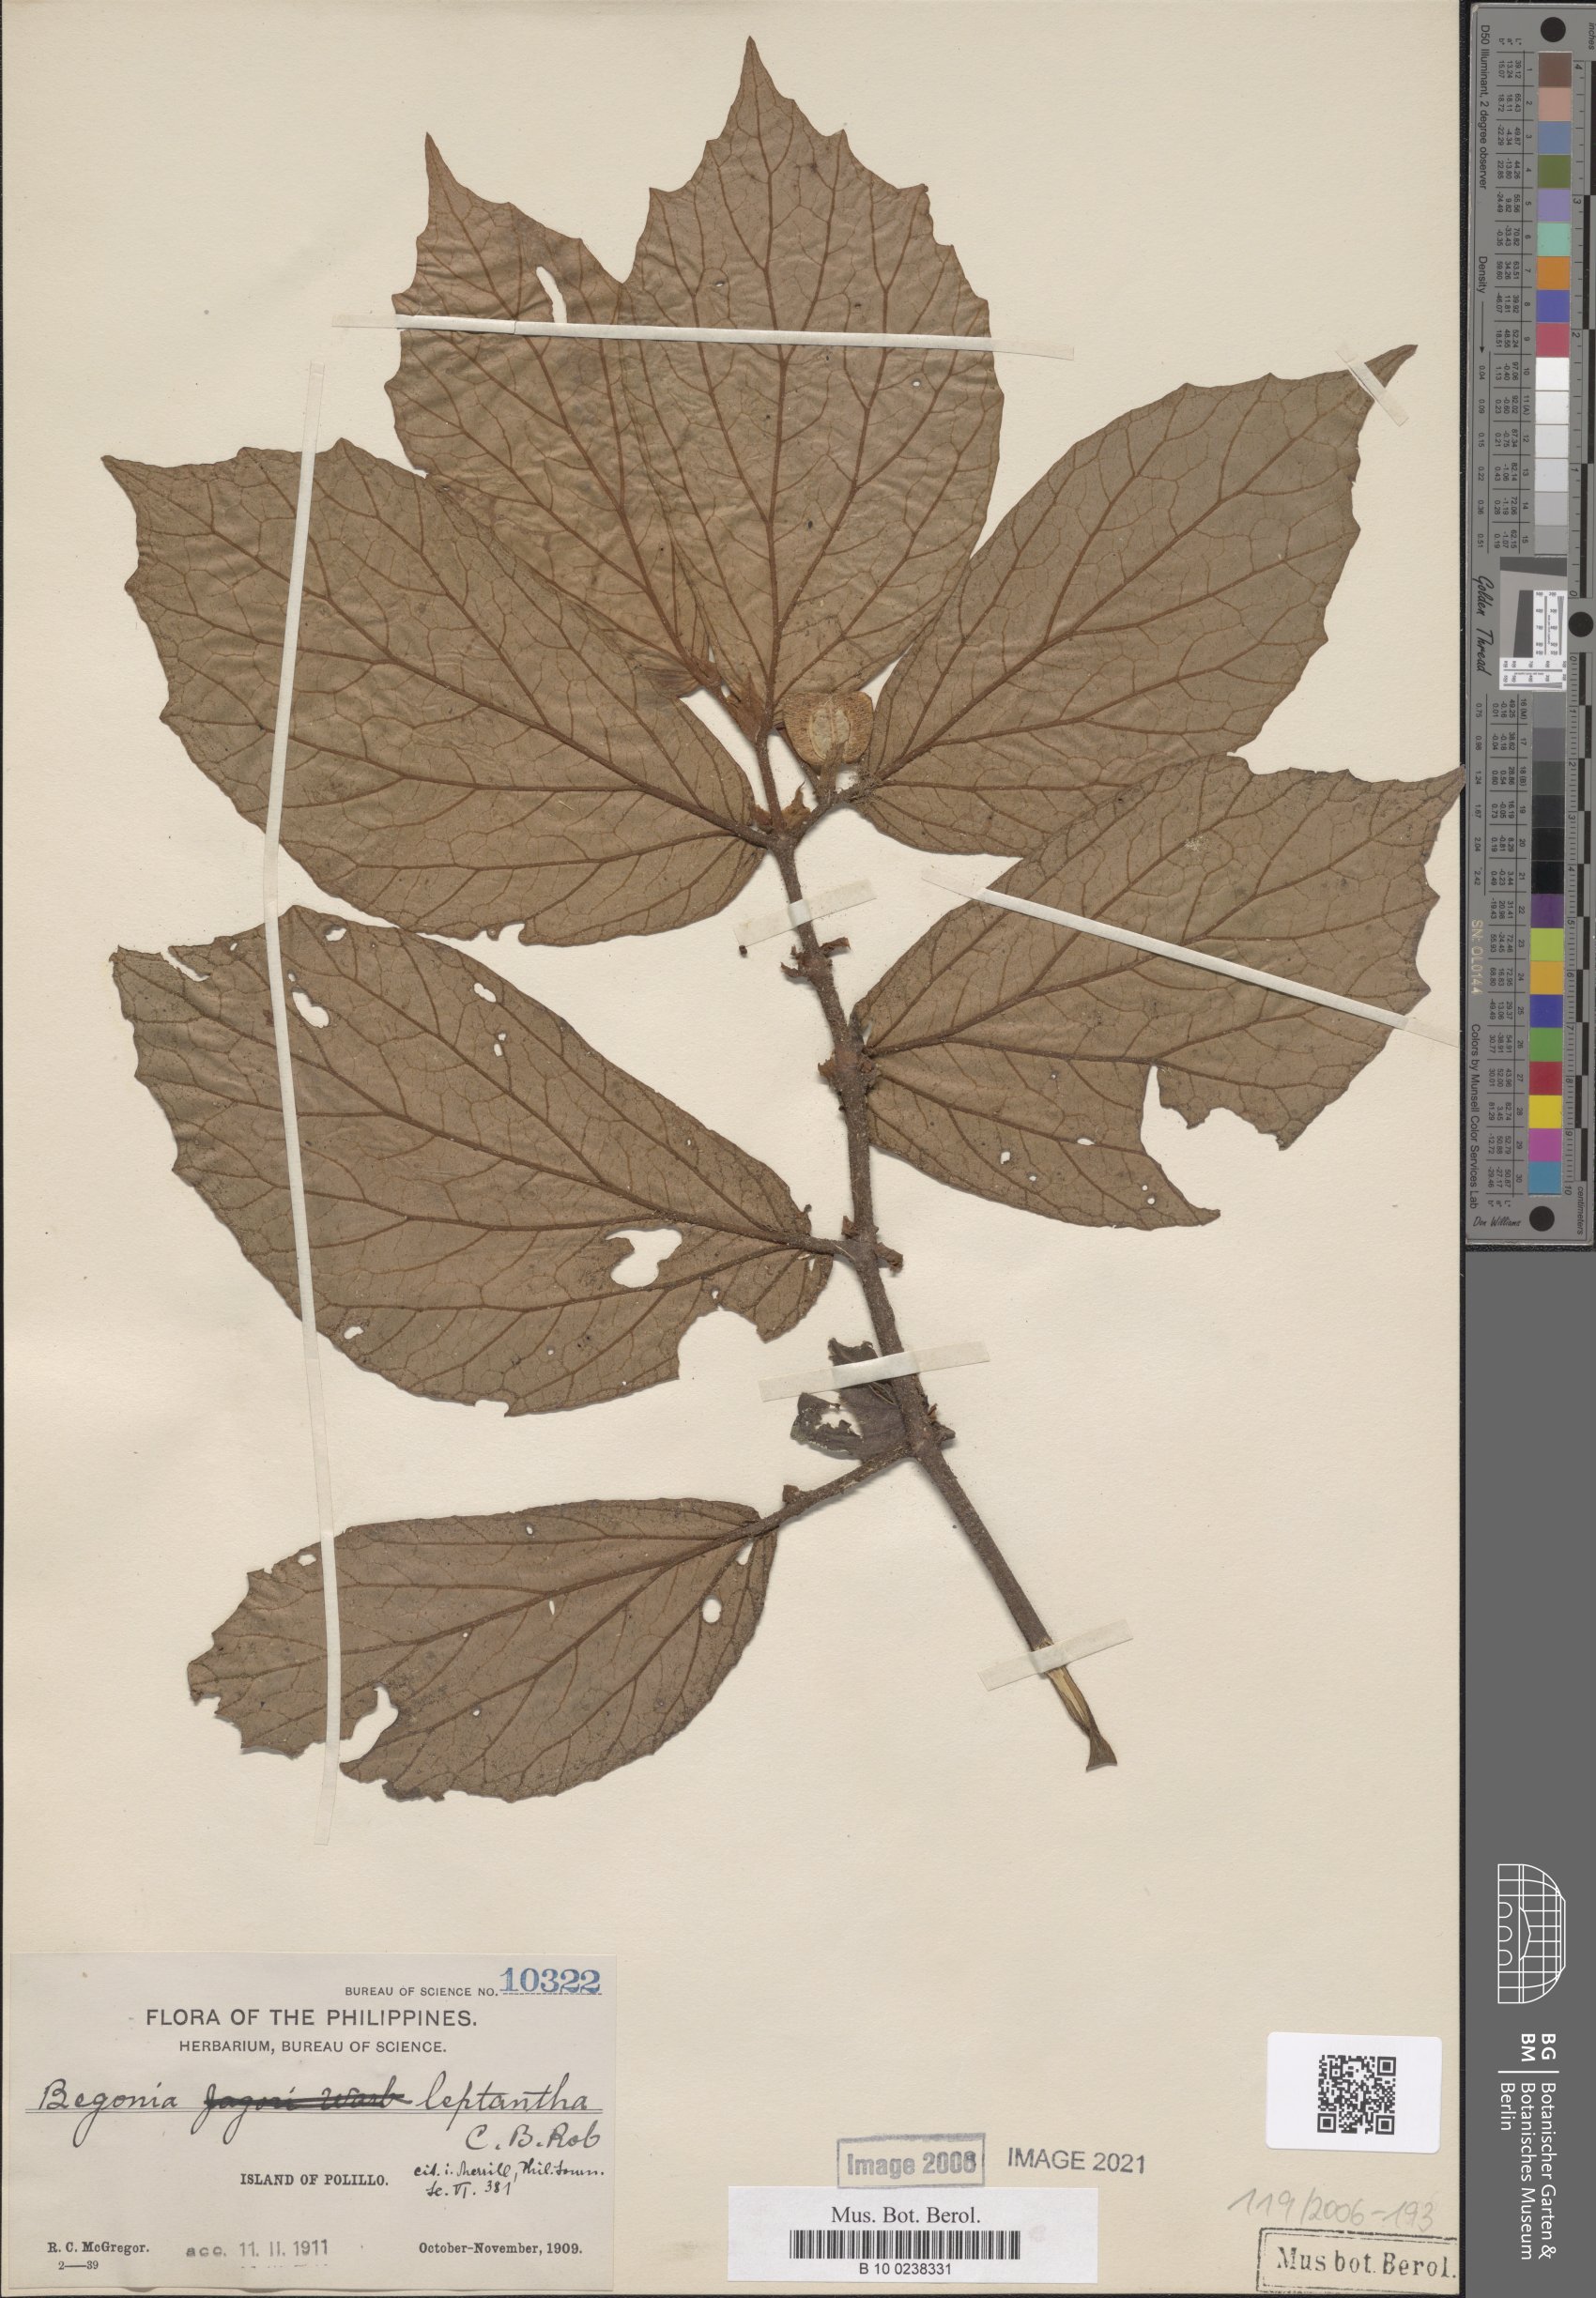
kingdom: Plantae
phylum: Tracheophyta
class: Magnoliopsida
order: Cucurbitales
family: Begoniaceae
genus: Begonia
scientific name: Begonia leptantha
